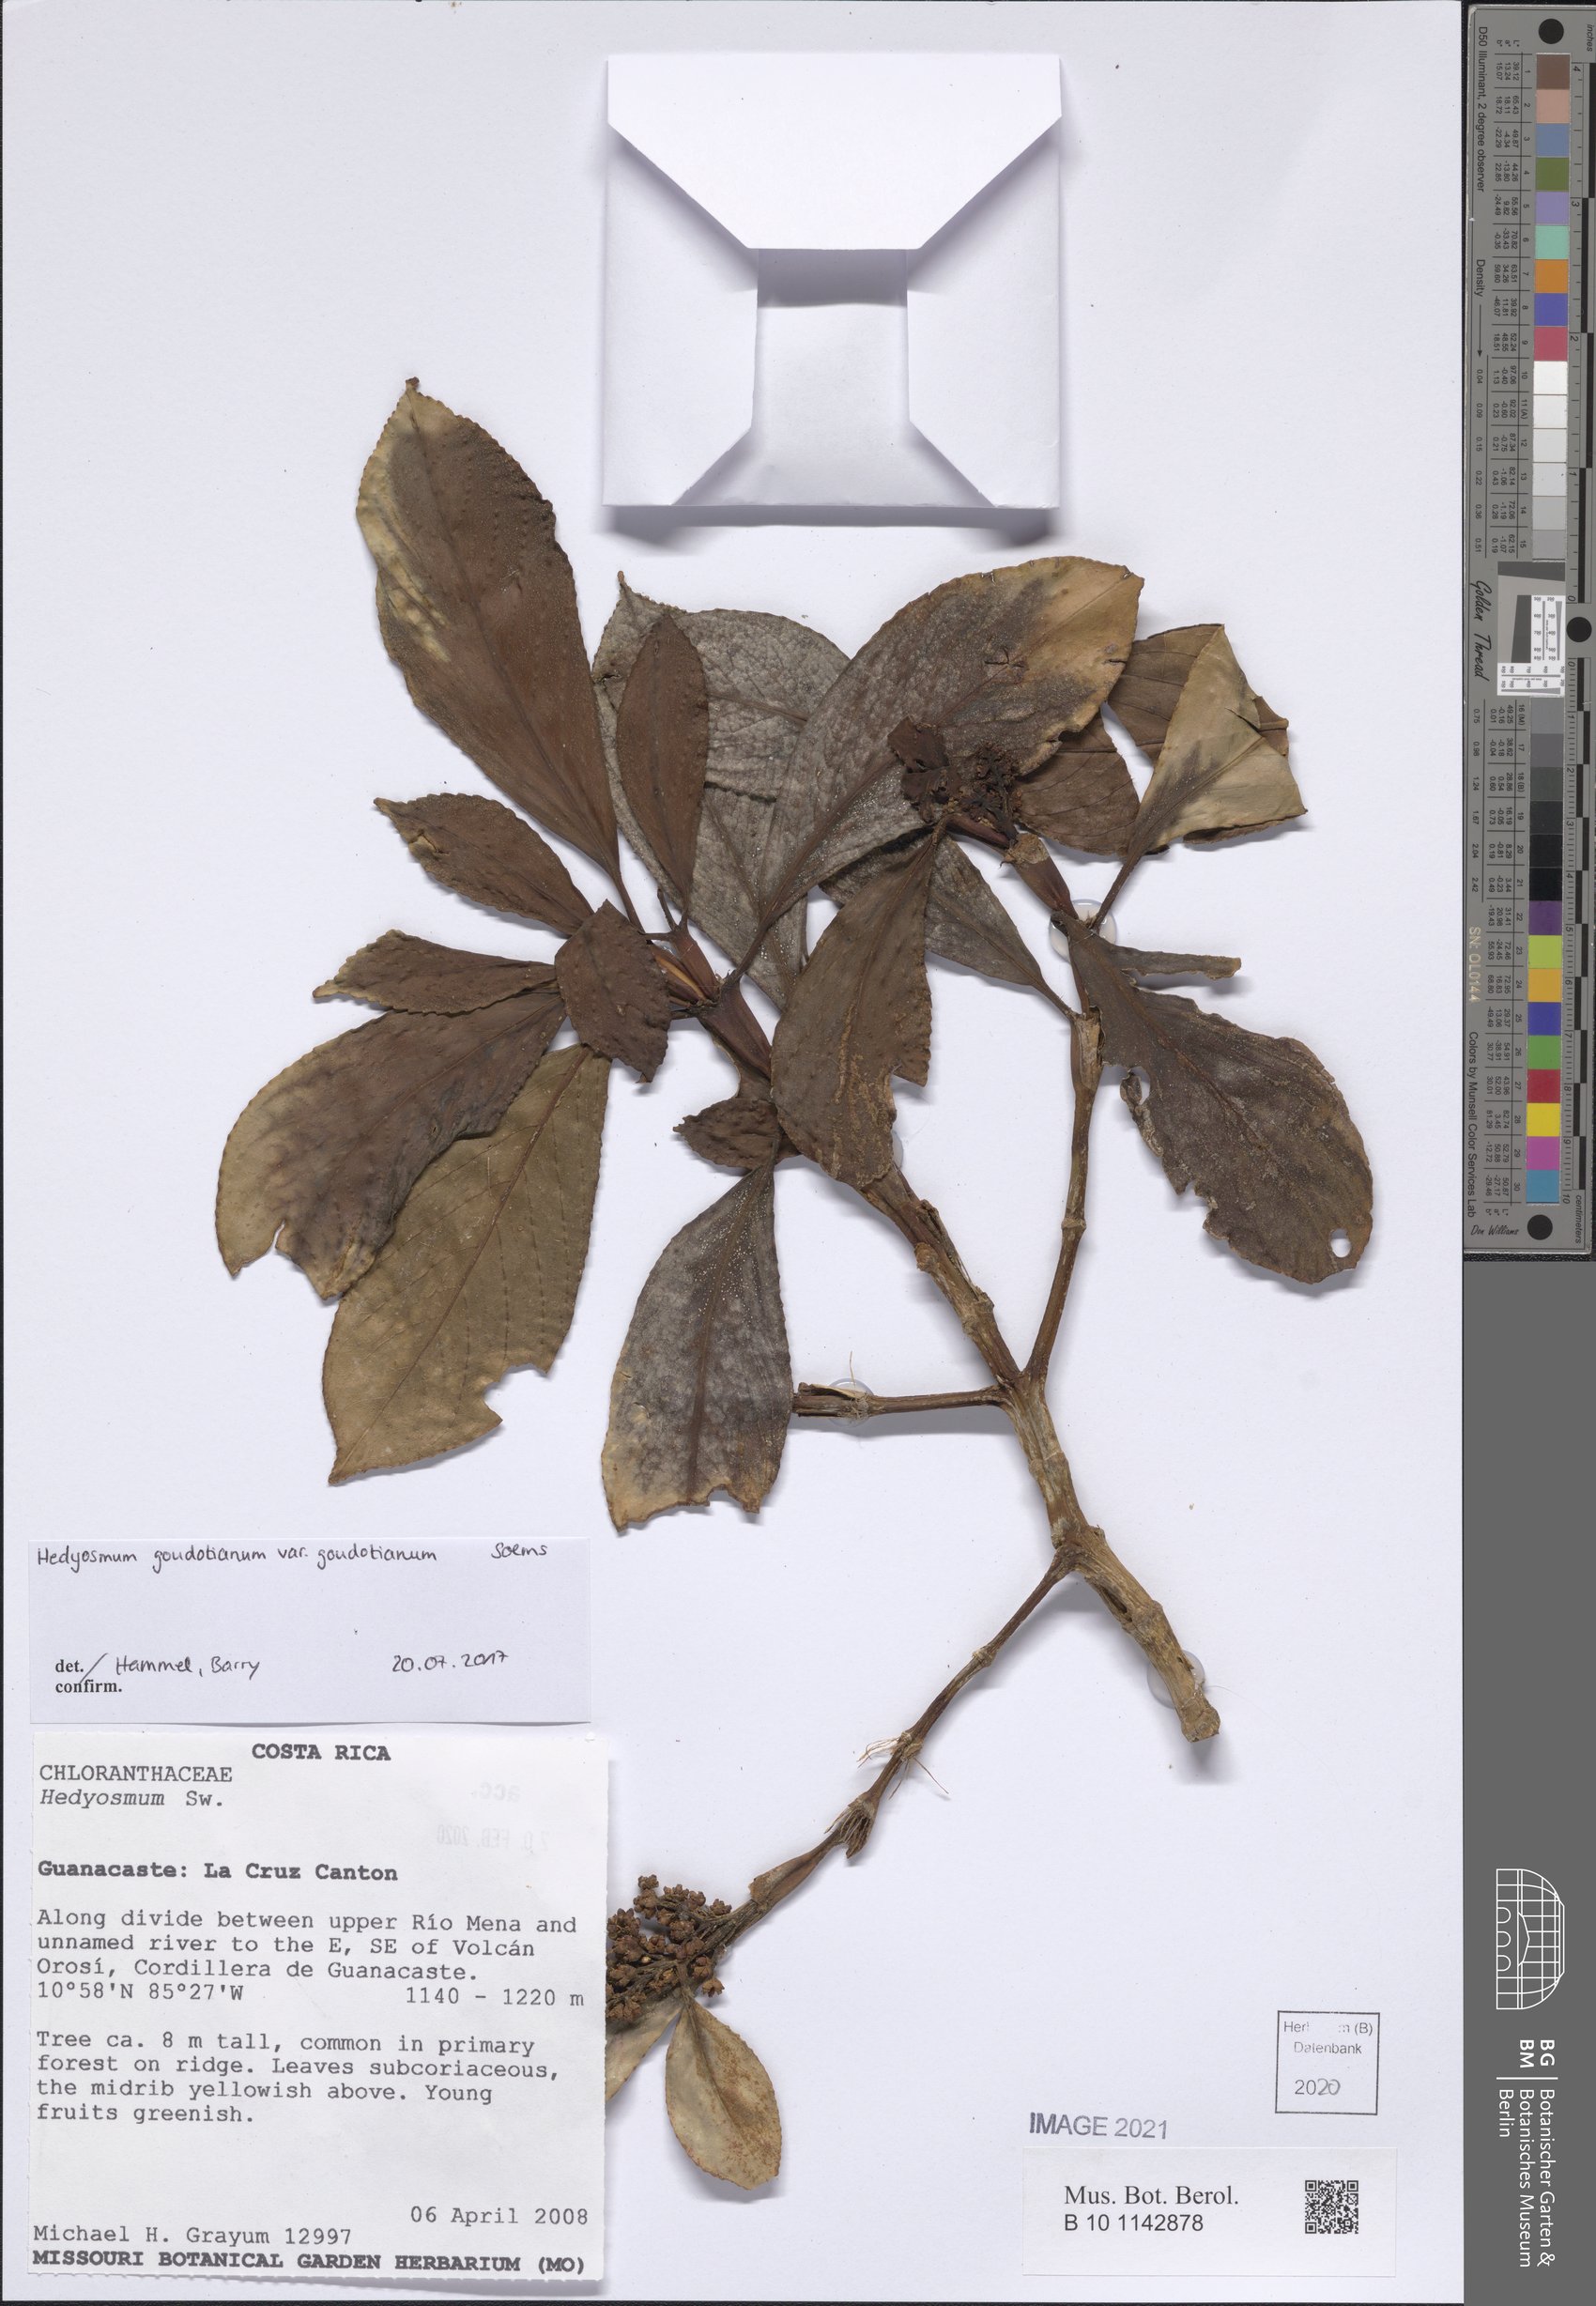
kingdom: Plantae
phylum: Tracheophyta
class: Magnoliopsida
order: Chloranthales
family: Chloranthaceae
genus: Hedyosmum
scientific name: Hedyosmum goudotianum
